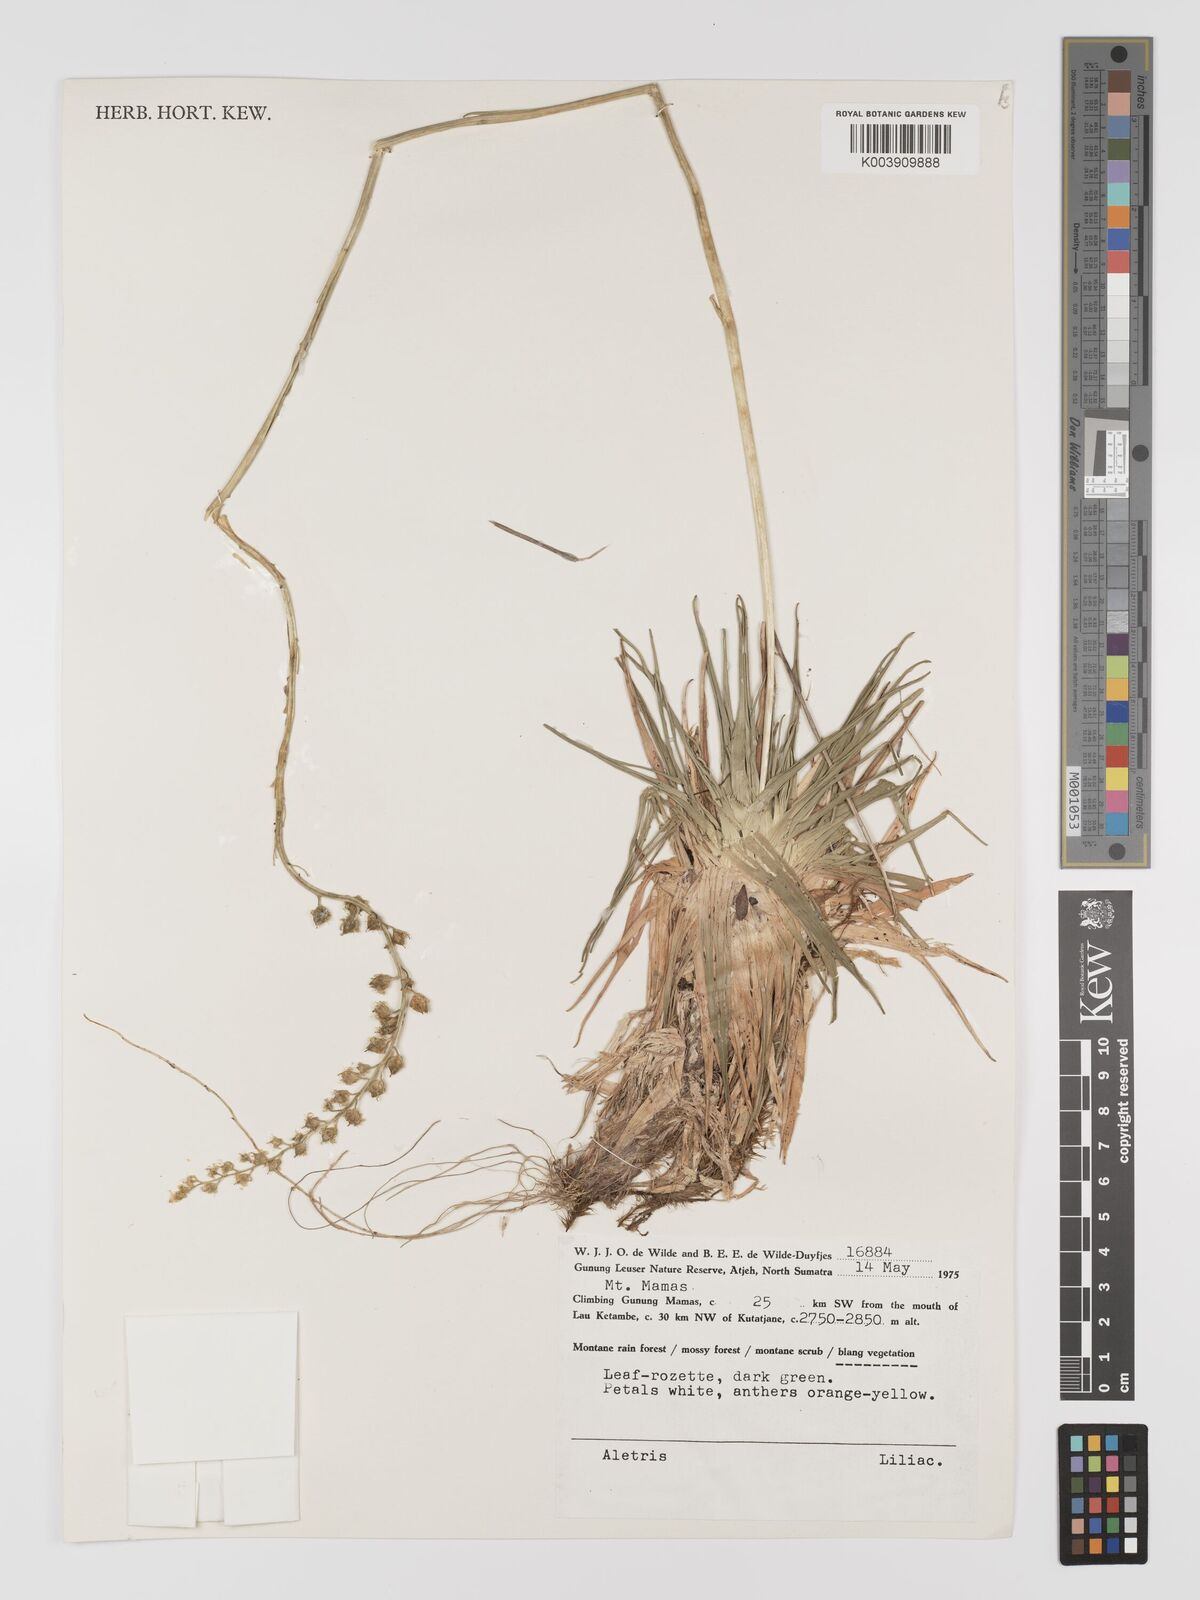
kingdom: Plantae
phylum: Tracheophyta
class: Liliopsida
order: Dioscoreales
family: Nartheciaceae
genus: Aletris
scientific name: Aletris
